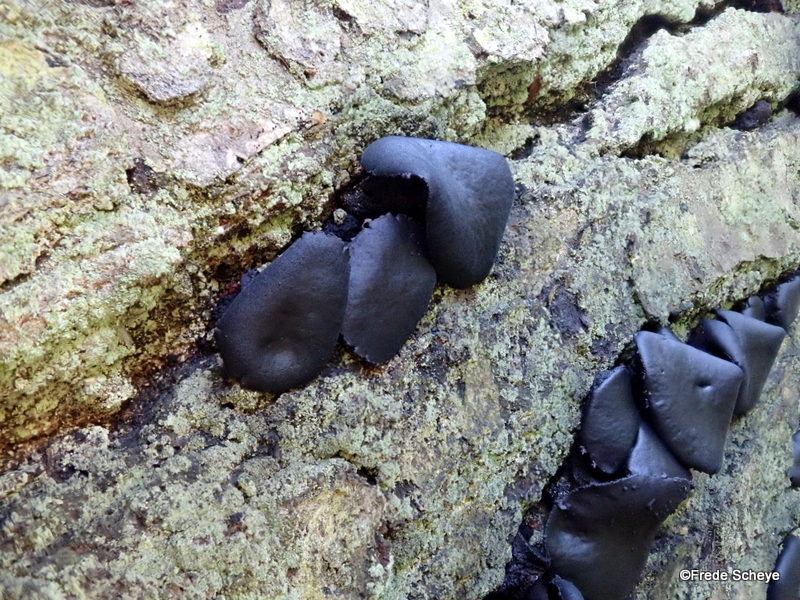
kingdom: Fungi
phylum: Ascomycota
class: Leotiomycetes
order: Phacidiales
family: Phacidiaceae
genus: Bulgaria
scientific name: Bulgaria inquinans
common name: afsmittende topsvamp
